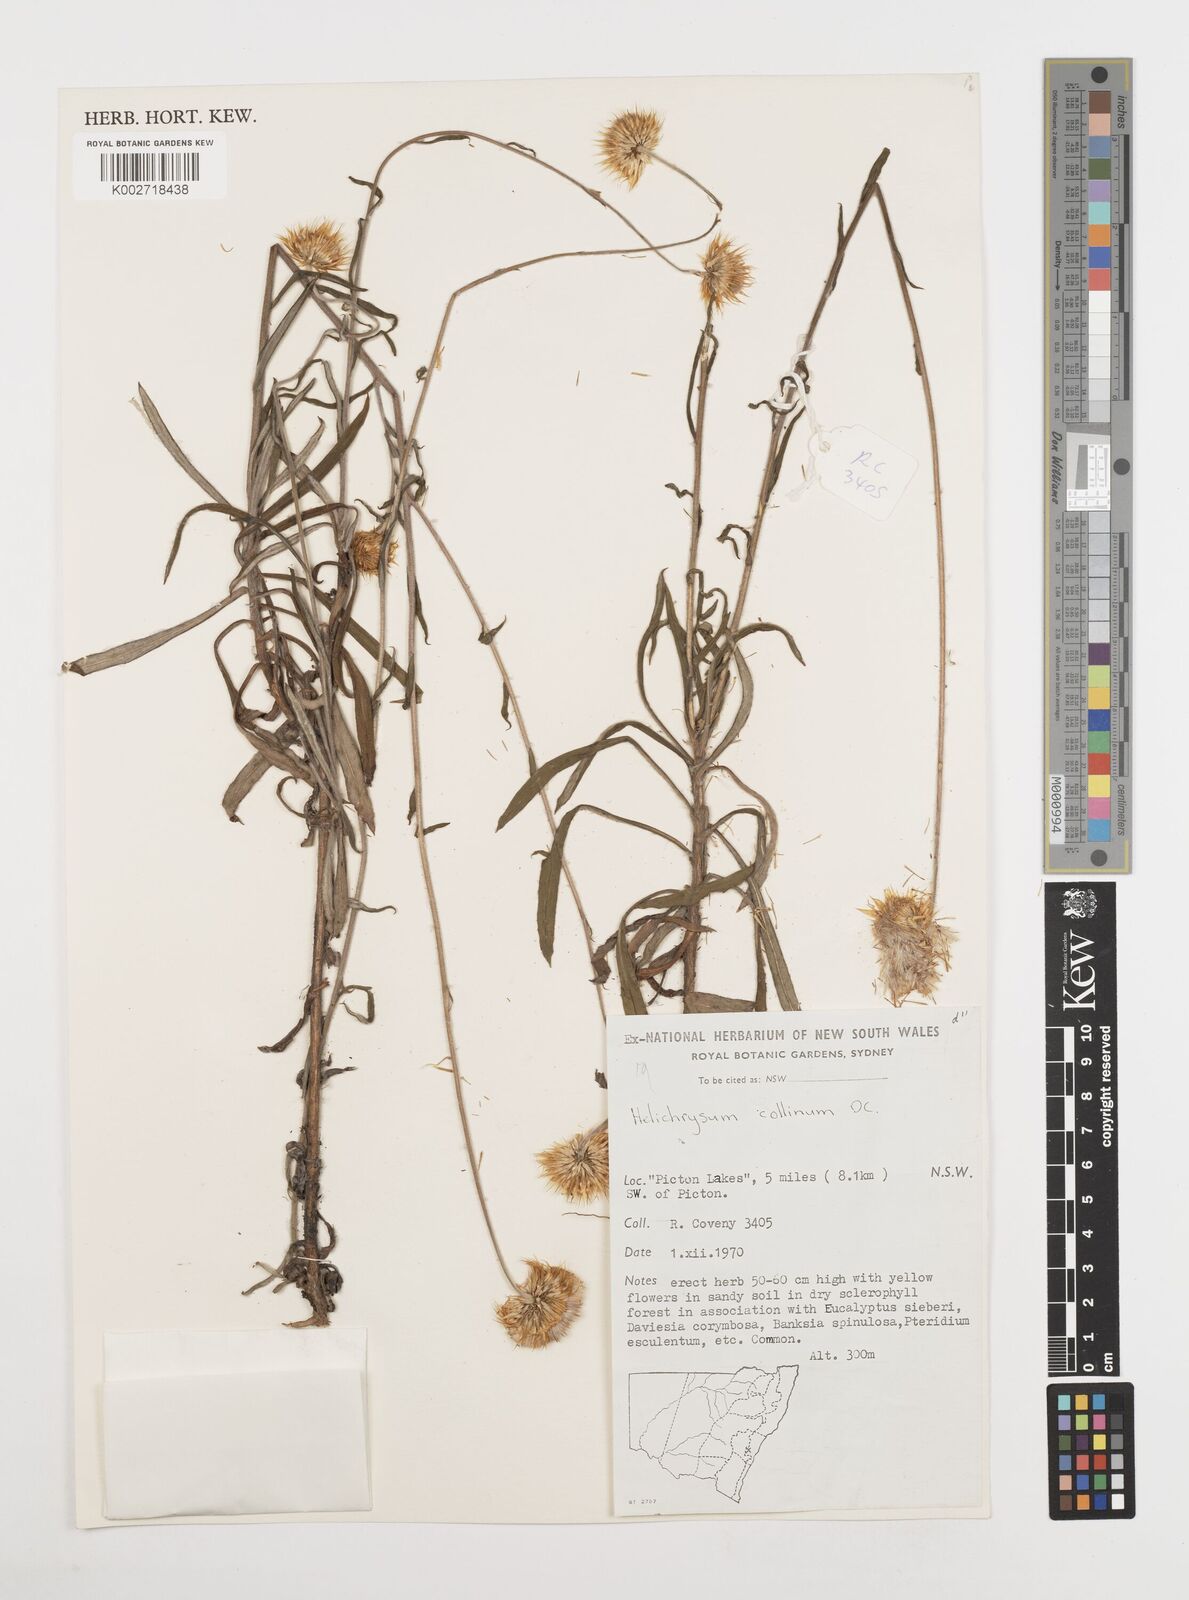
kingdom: Plantae
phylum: Tracheophyta
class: Magnoliopsida
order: Asterales
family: Asteraceae
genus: Coronidium
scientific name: Coronidium rupicola
